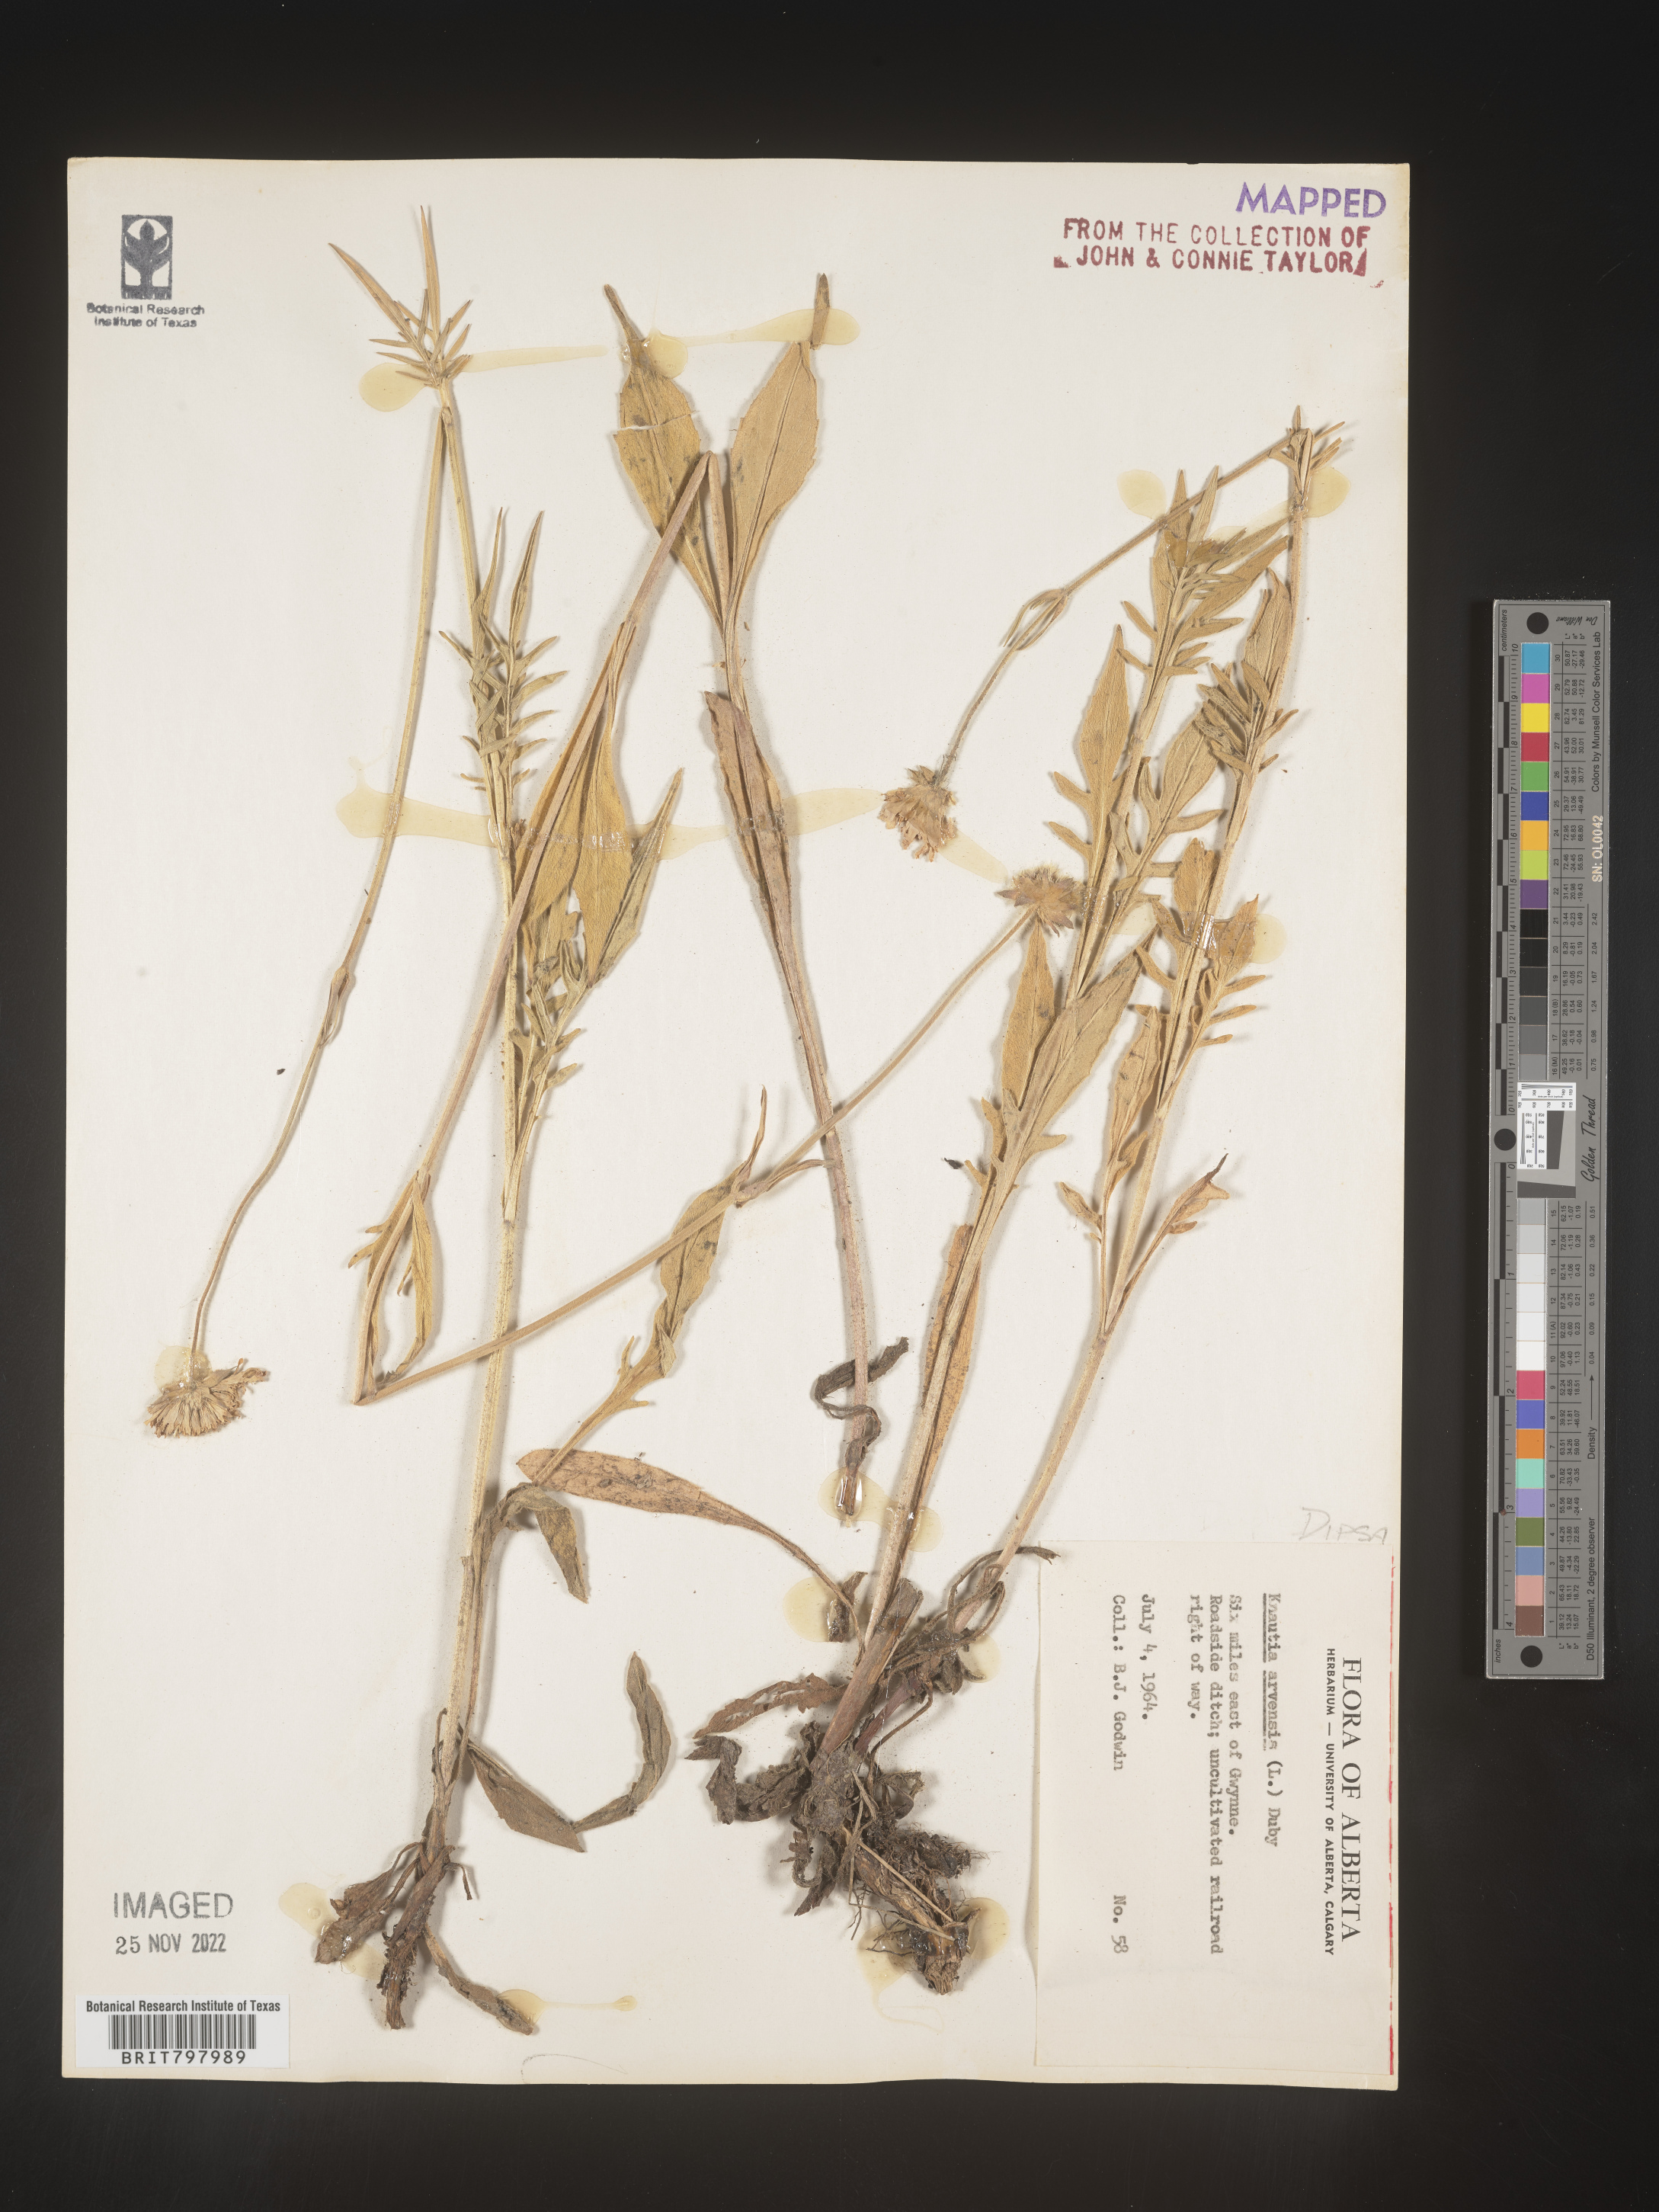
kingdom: Plantae
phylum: Tracheophyta
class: Magnoliopsida
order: Dipsacales
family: Caprifoliaceae
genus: Knautia
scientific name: Knautia
